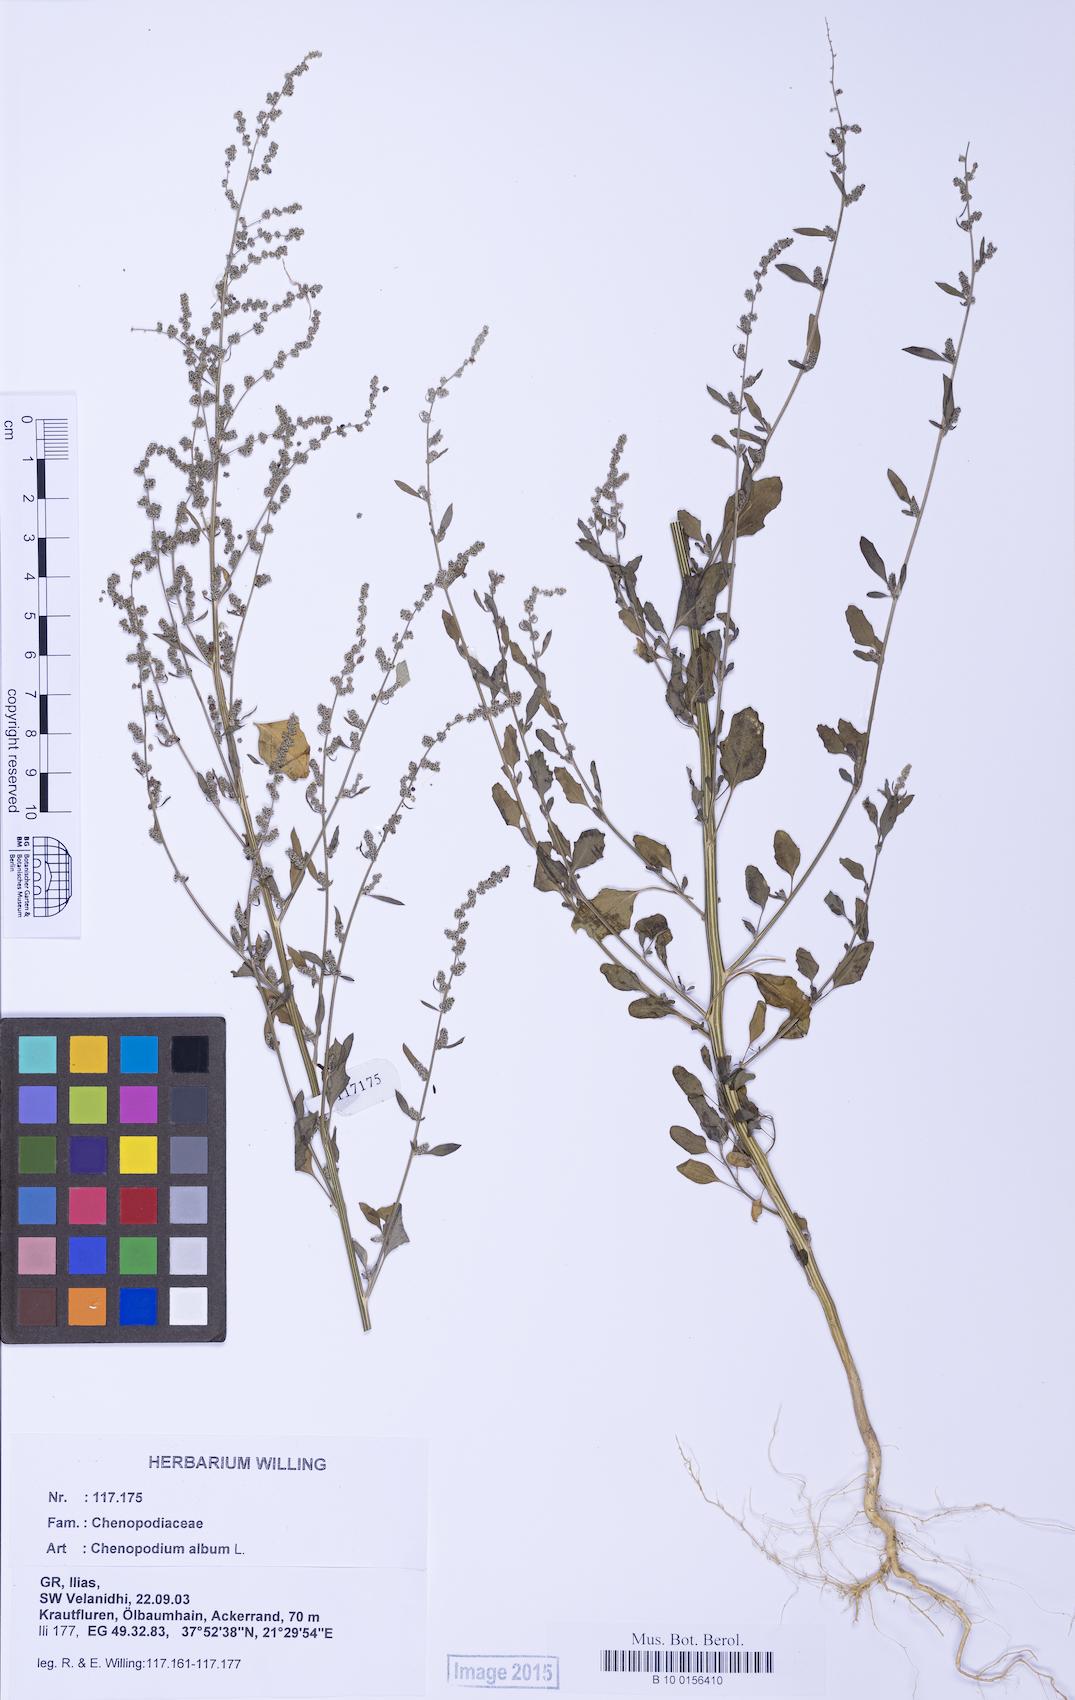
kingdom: Plantae
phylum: Tracheophyta
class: Magnoliopsida
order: Caryophyllales
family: Amaranthaceae
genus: Chenopodium
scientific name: Chenopodium album
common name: Fat-hen
